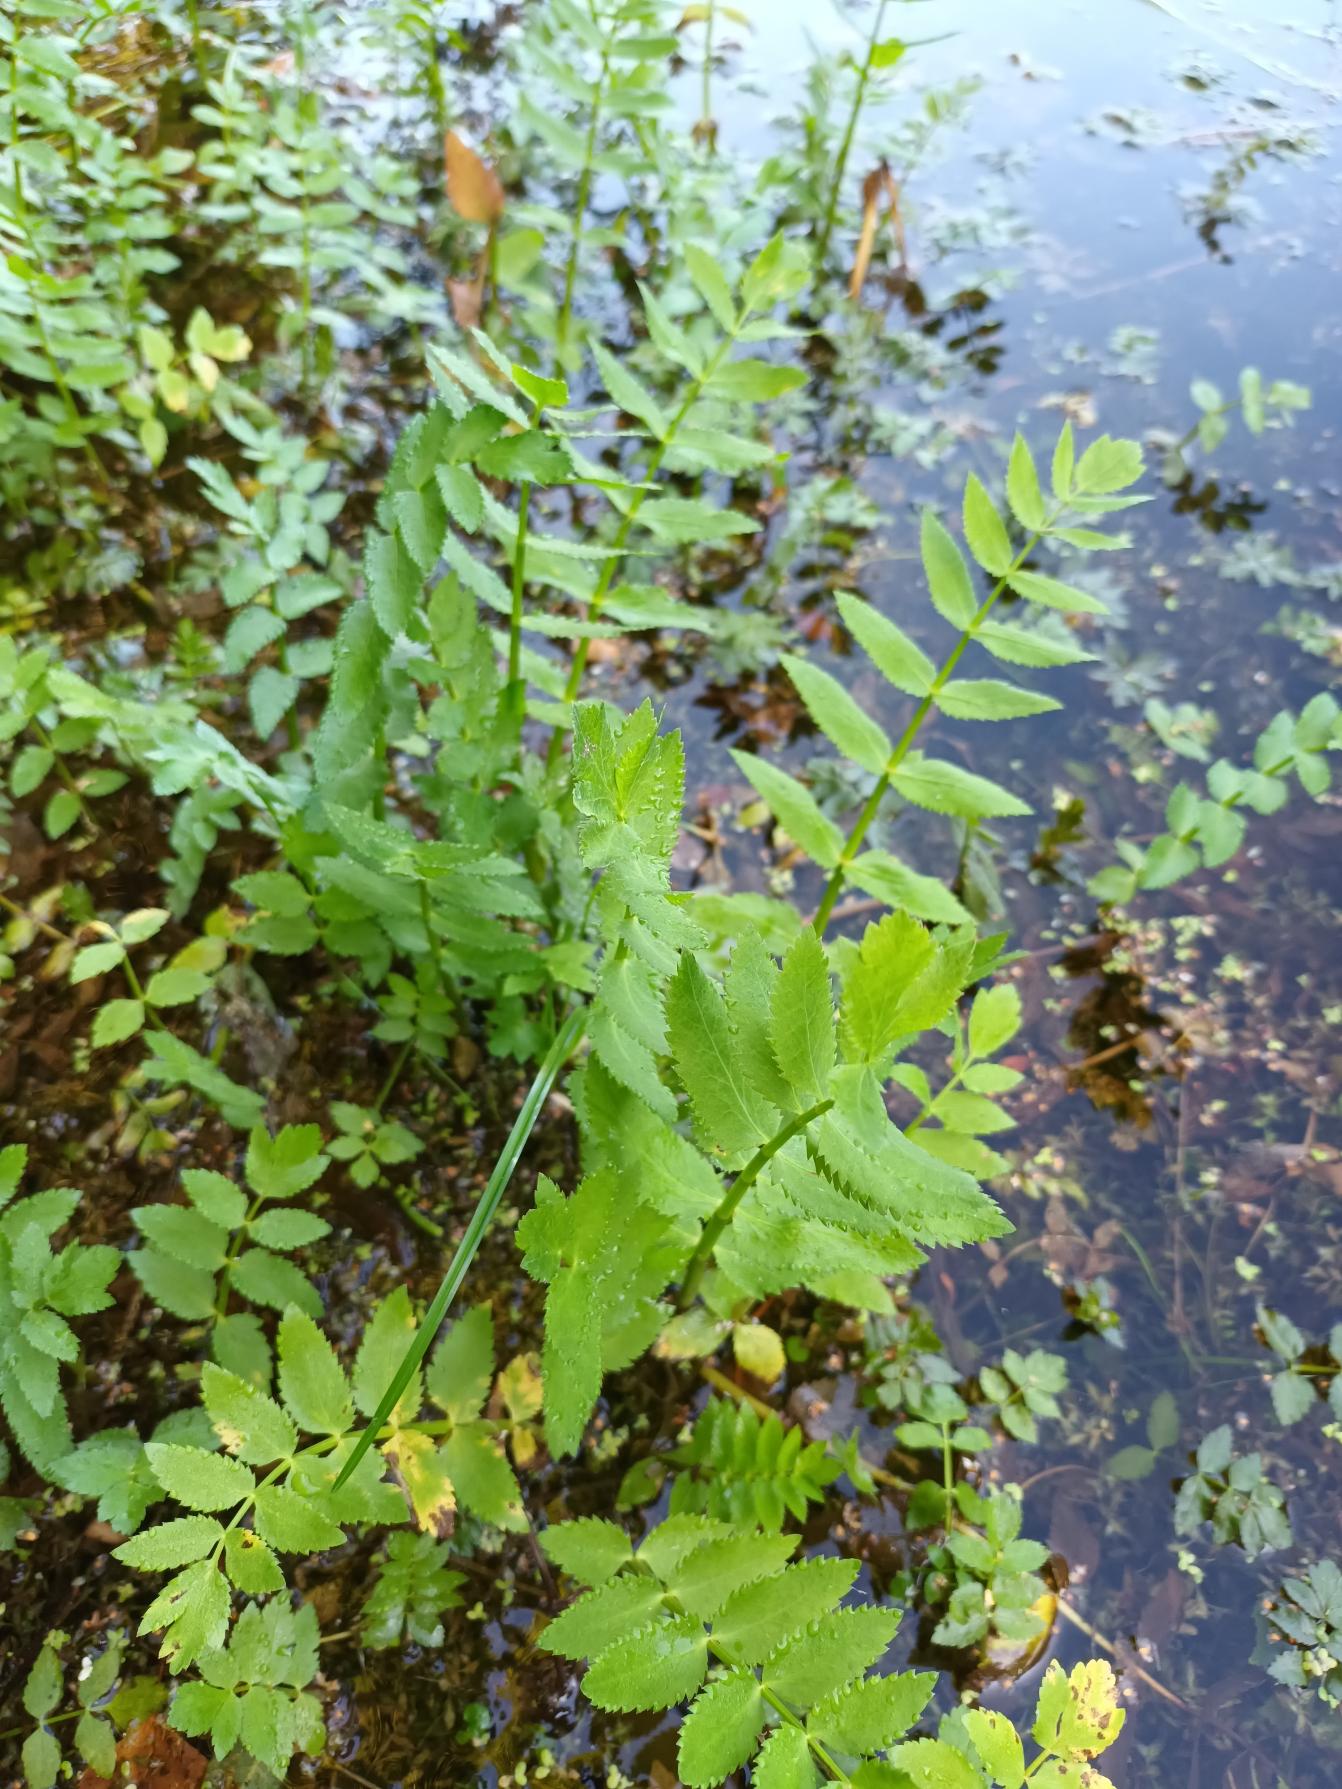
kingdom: Plantae
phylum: Tracheophyta
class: Magnoliopsida
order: Apiales
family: Apiaceae
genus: Berula
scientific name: Berula erecta
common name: Sideskærm
